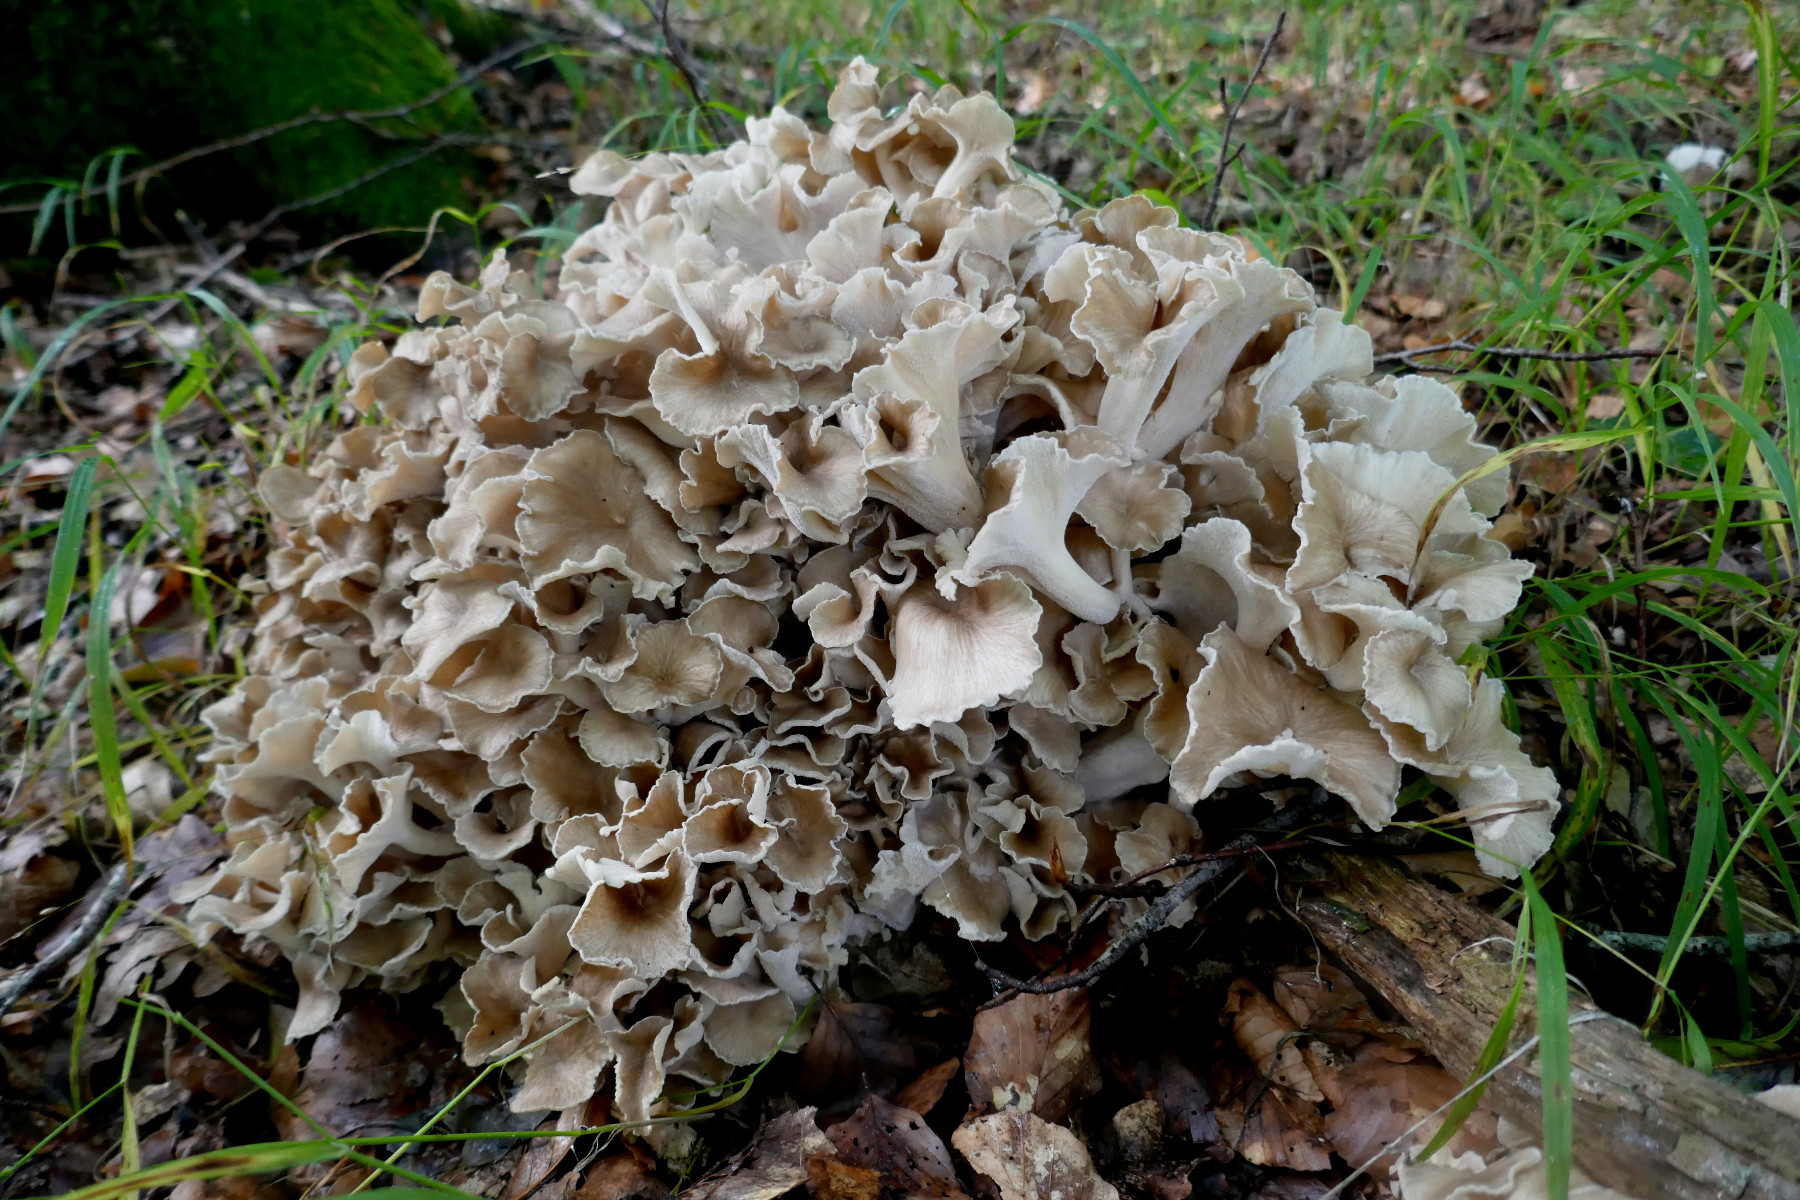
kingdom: Fungi
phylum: Basidiomycota
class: Agaricomycetes
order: Polyporales
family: Polyporaceae
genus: Polyporus
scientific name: Polyporus umbellatus
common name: skærmformet stilkporesvamp
